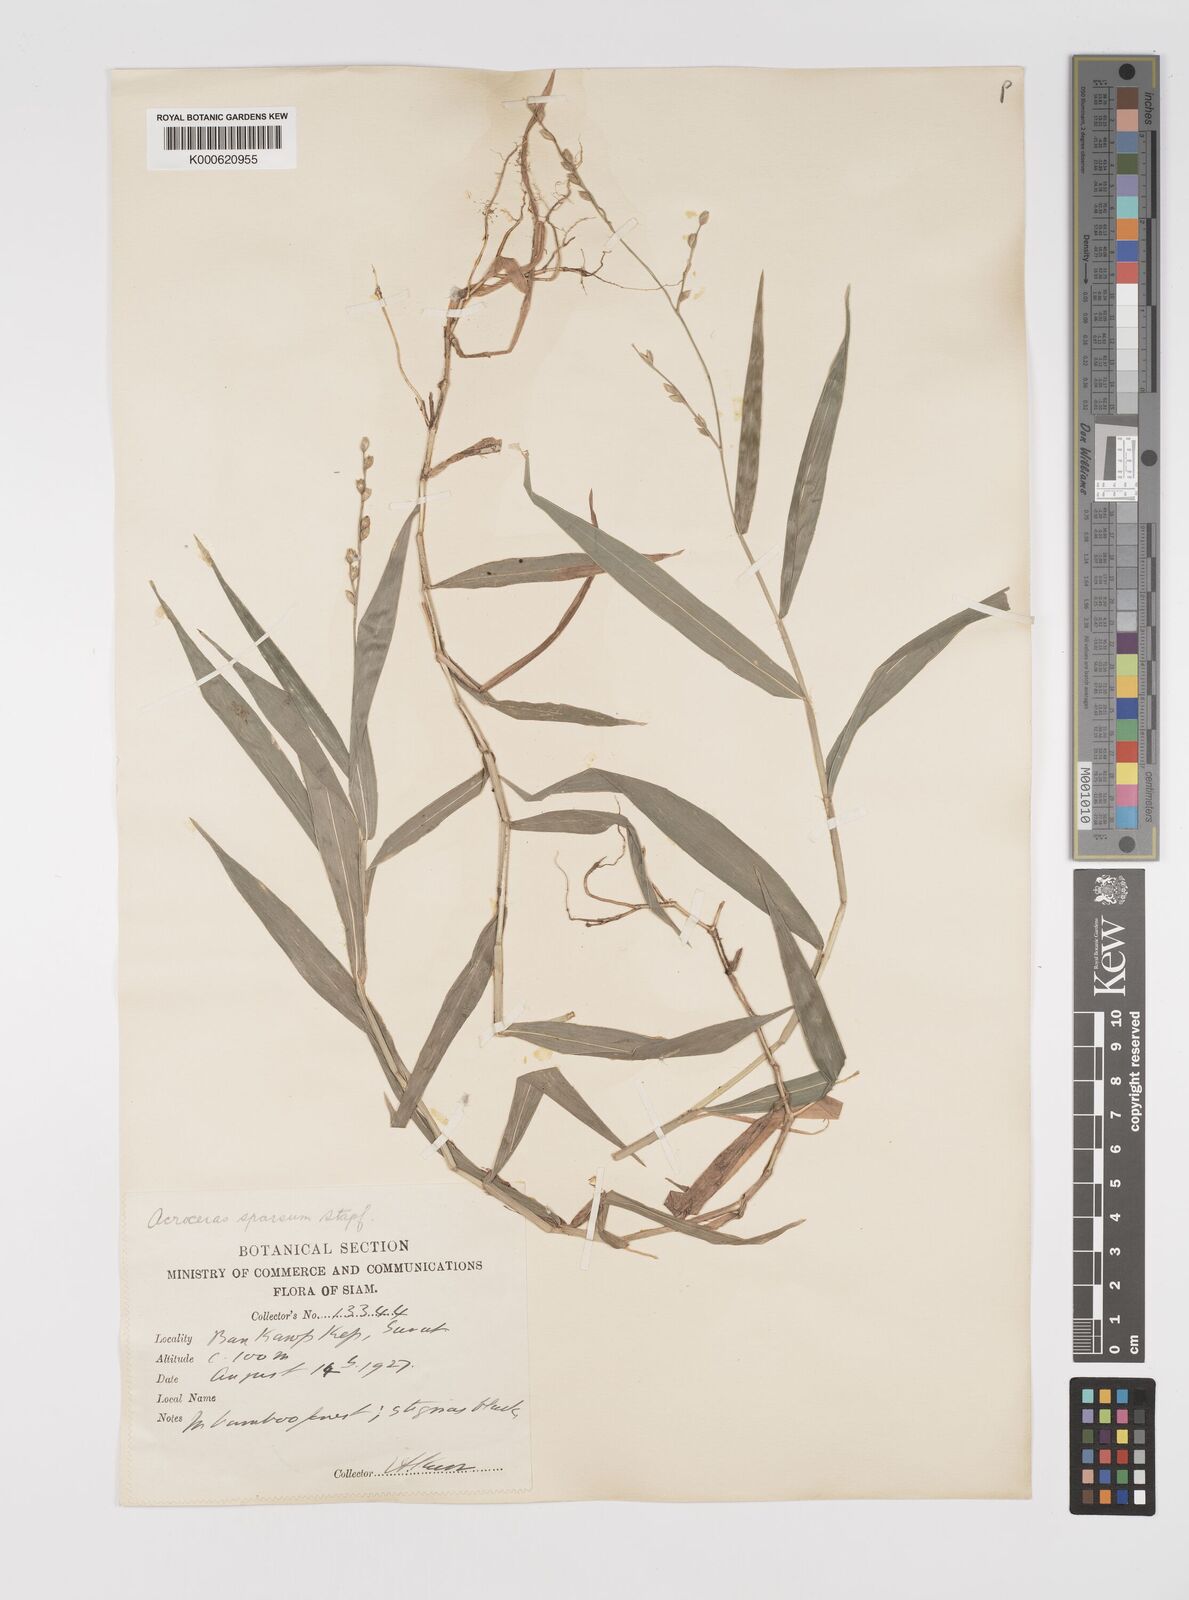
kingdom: Plantae
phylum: Tracheophyta
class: Liliopsida
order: Poales
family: Poaceae
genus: Acroceras
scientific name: Acroceras
